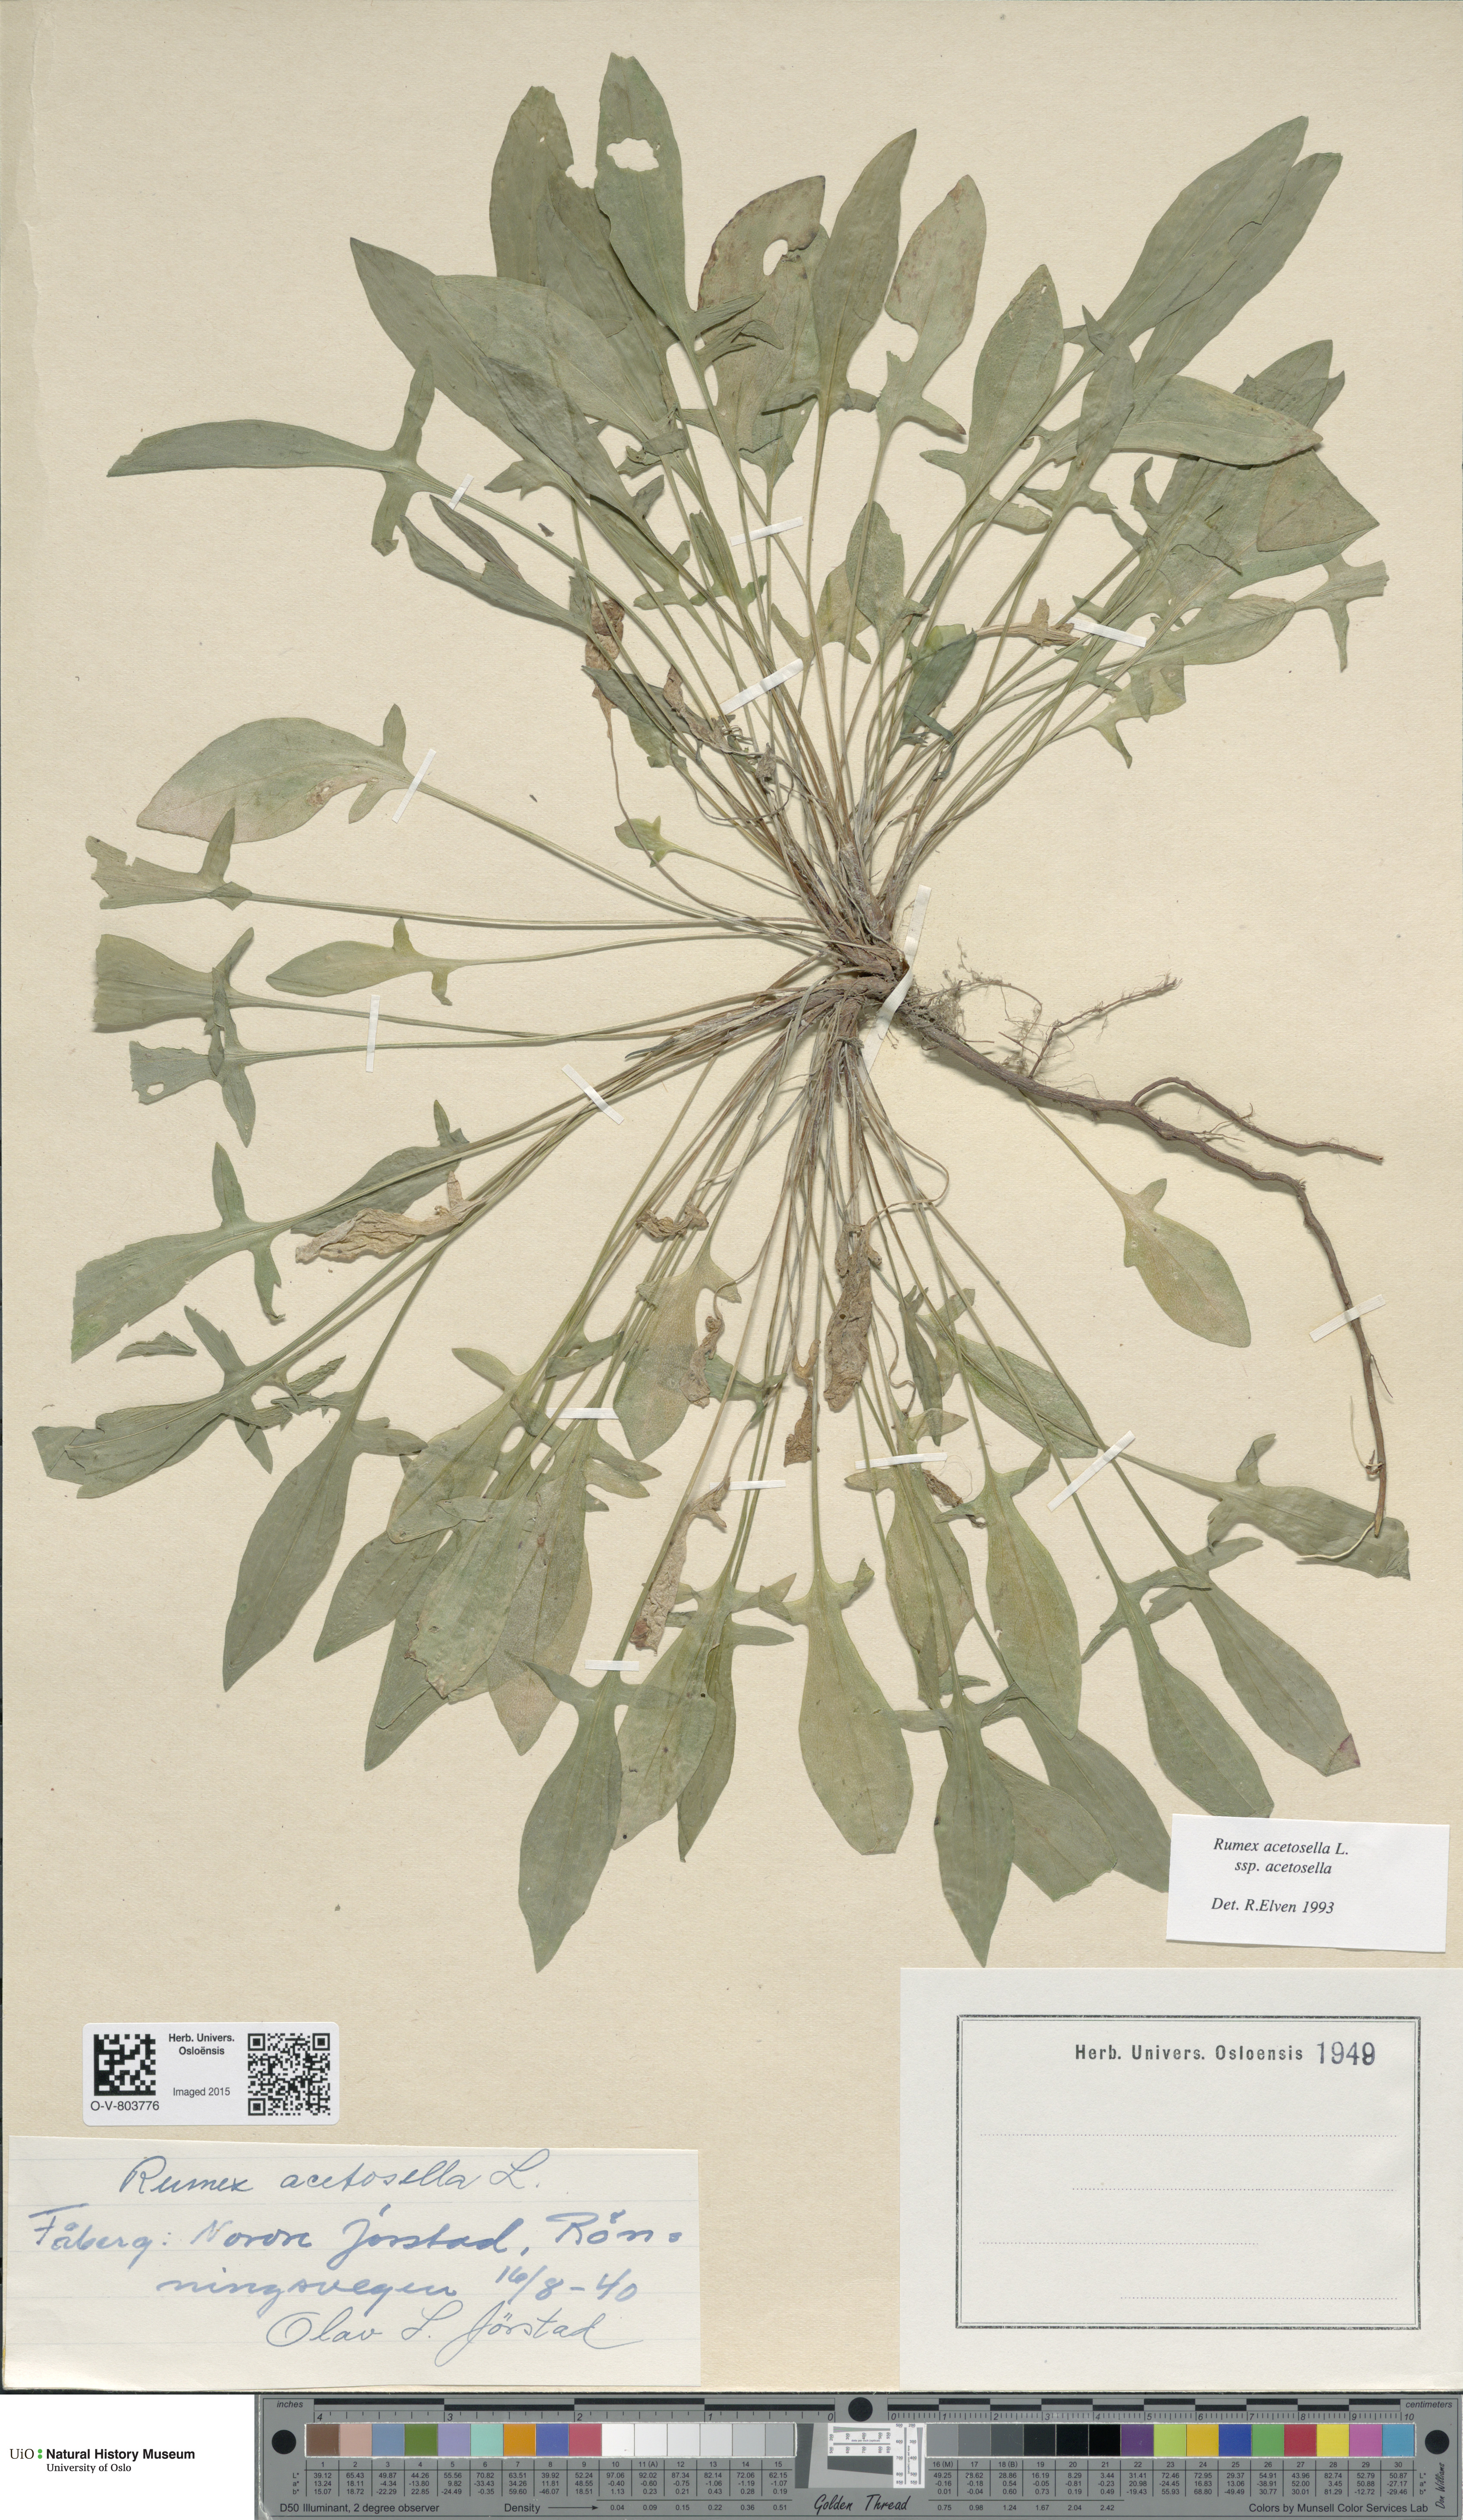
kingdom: Plantae
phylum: Tracheophyta
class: Magnoliopsida
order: Caryophyllales
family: Polygonaceae
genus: Rumex
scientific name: Rumex acetosella
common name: Common sheep sorrel
